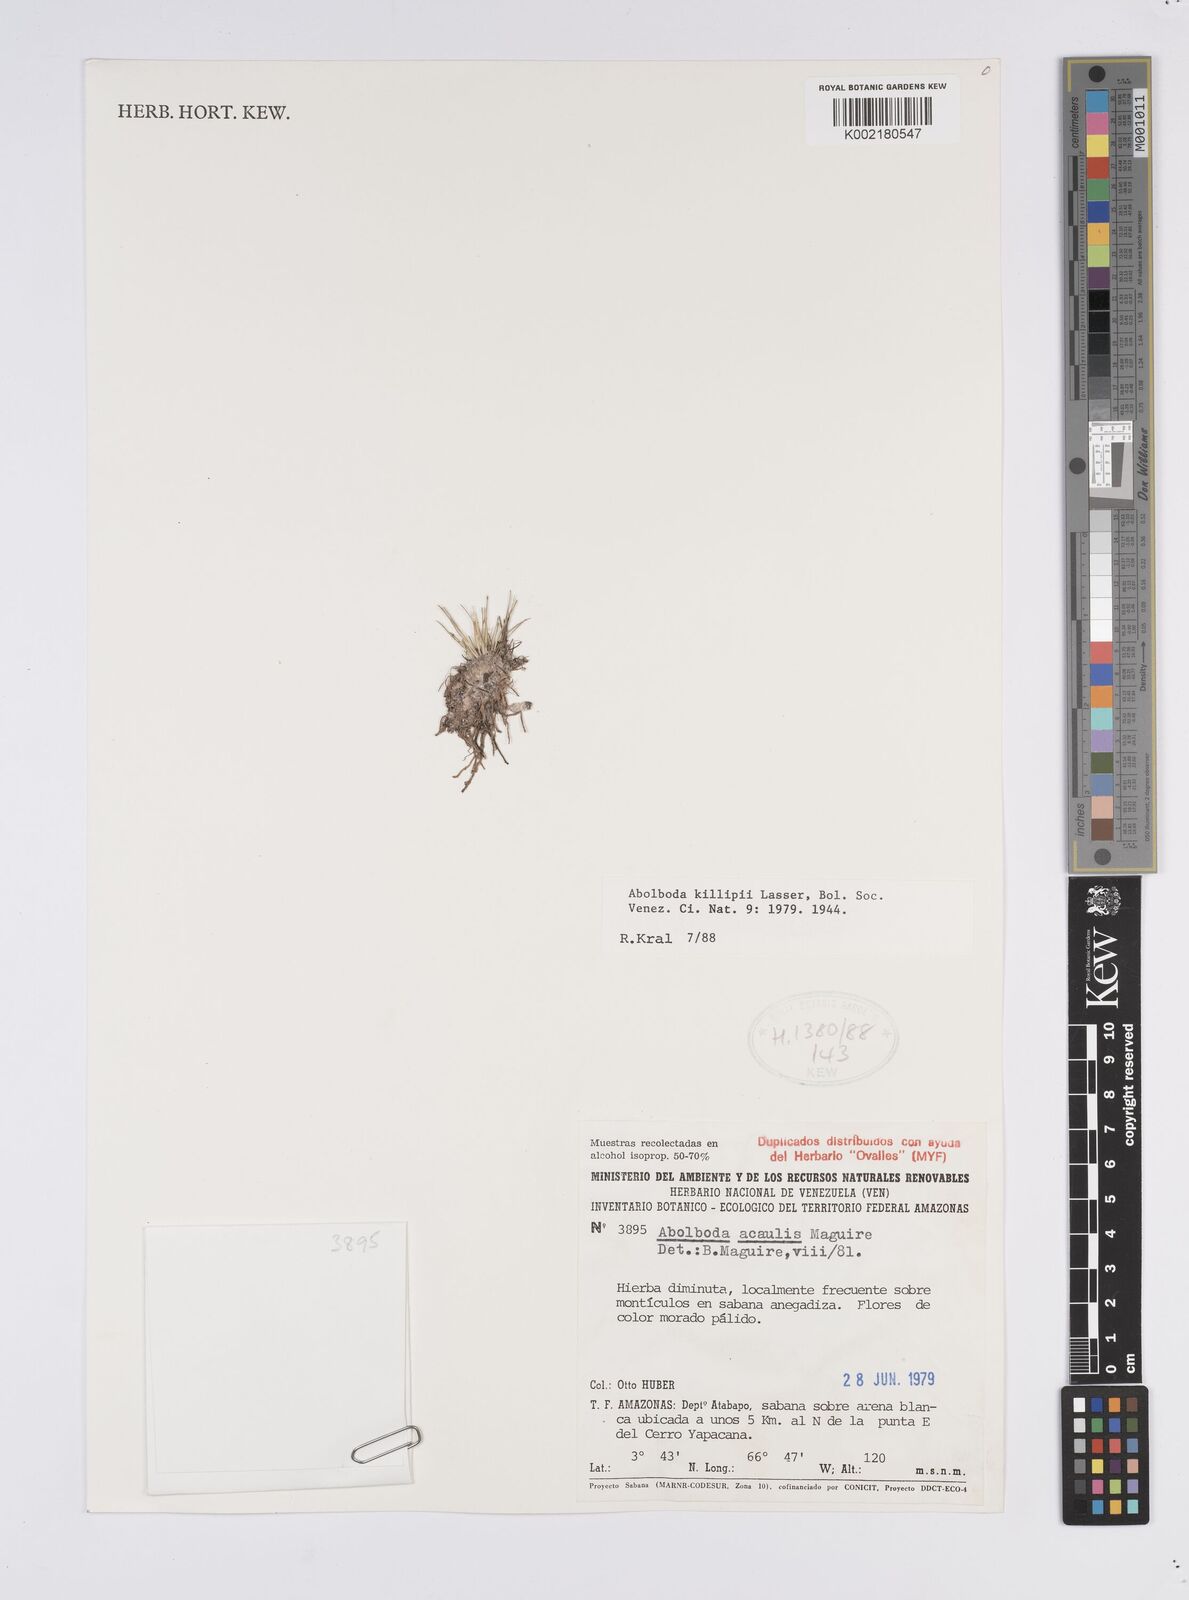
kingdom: Plantae
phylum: Tracheophyta
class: Liliopsida
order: Poales
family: Xyridaceae
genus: Abolboda
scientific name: Abolboda killipii
